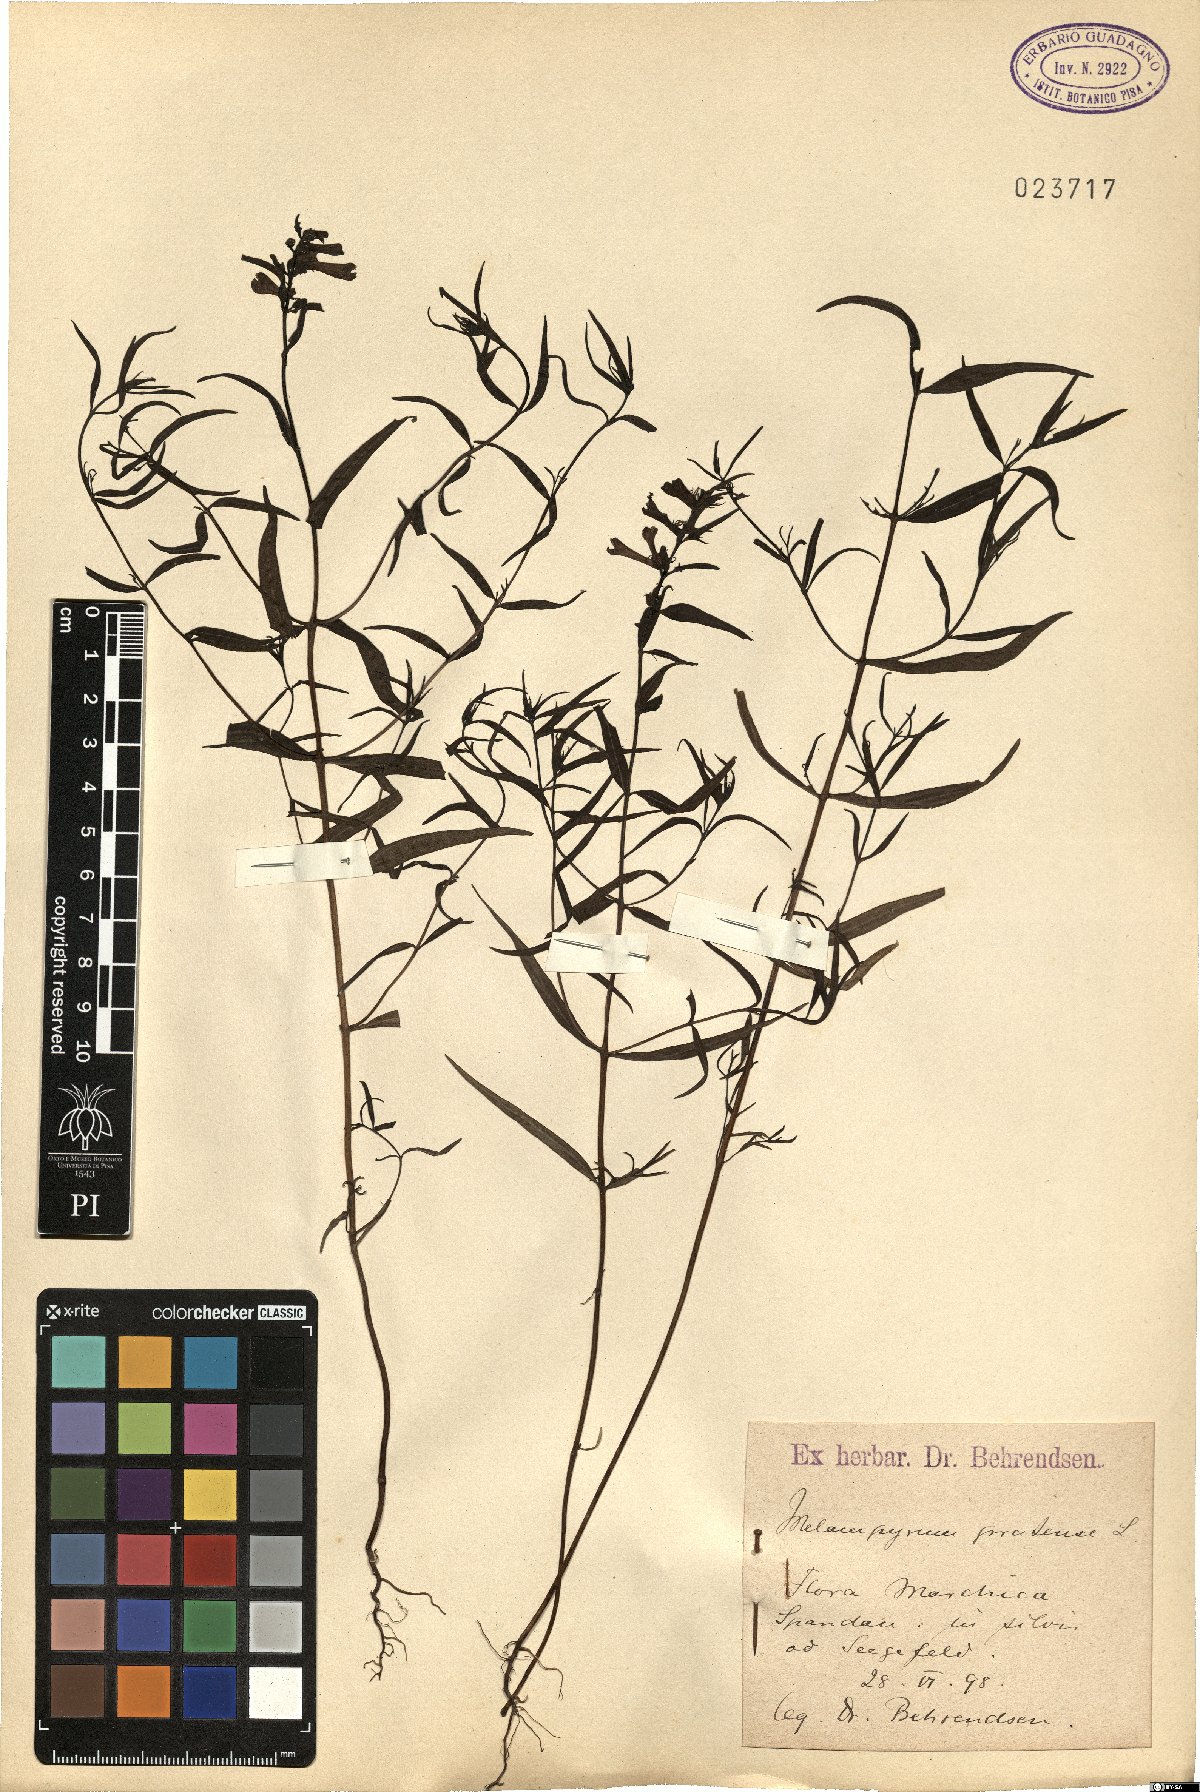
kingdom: Plantae
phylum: Tracheophyta
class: Magnoliopsida
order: Lamiales
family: Orobanchaceae
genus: Melampyrum
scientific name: Melampyrum pratense
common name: Common cow-wheat
